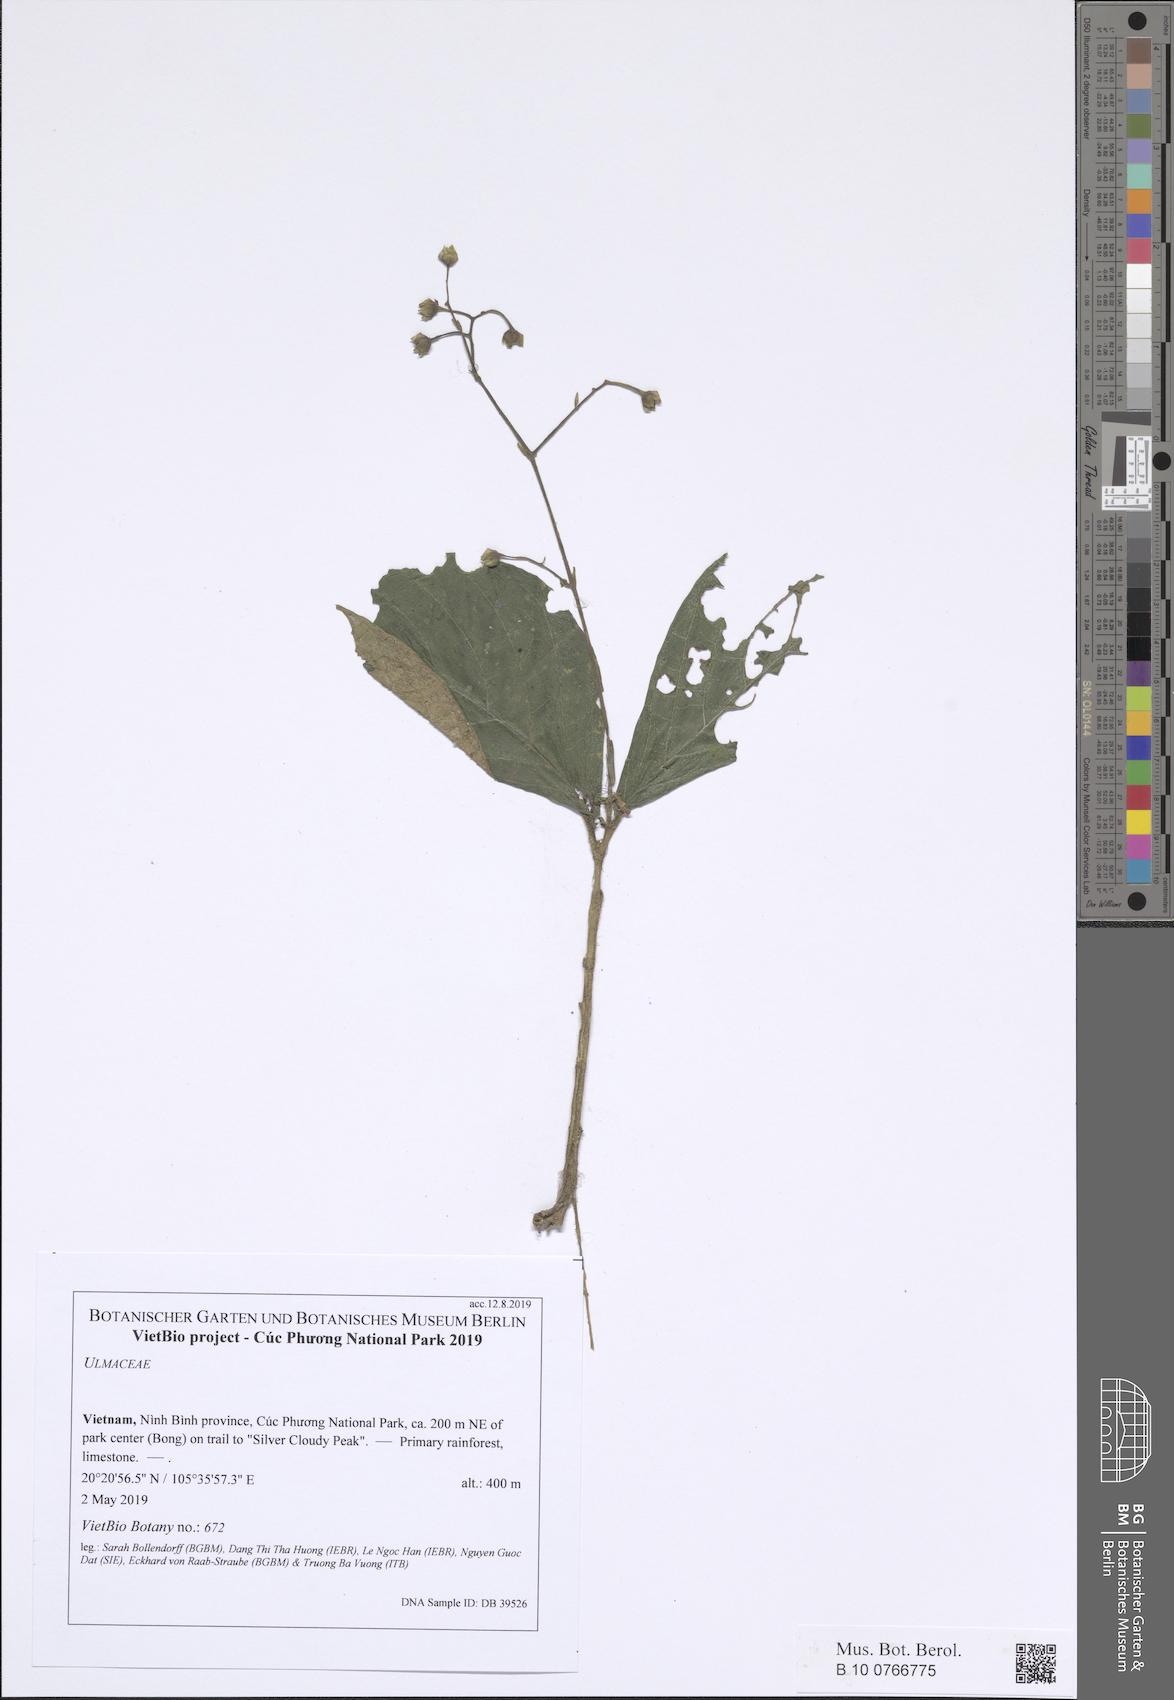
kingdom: Plantae
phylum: Tracheophyta
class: Magnoliopsida
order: Lamiales
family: Gesneriaceae
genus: Stauranthera
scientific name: Stauranthera
